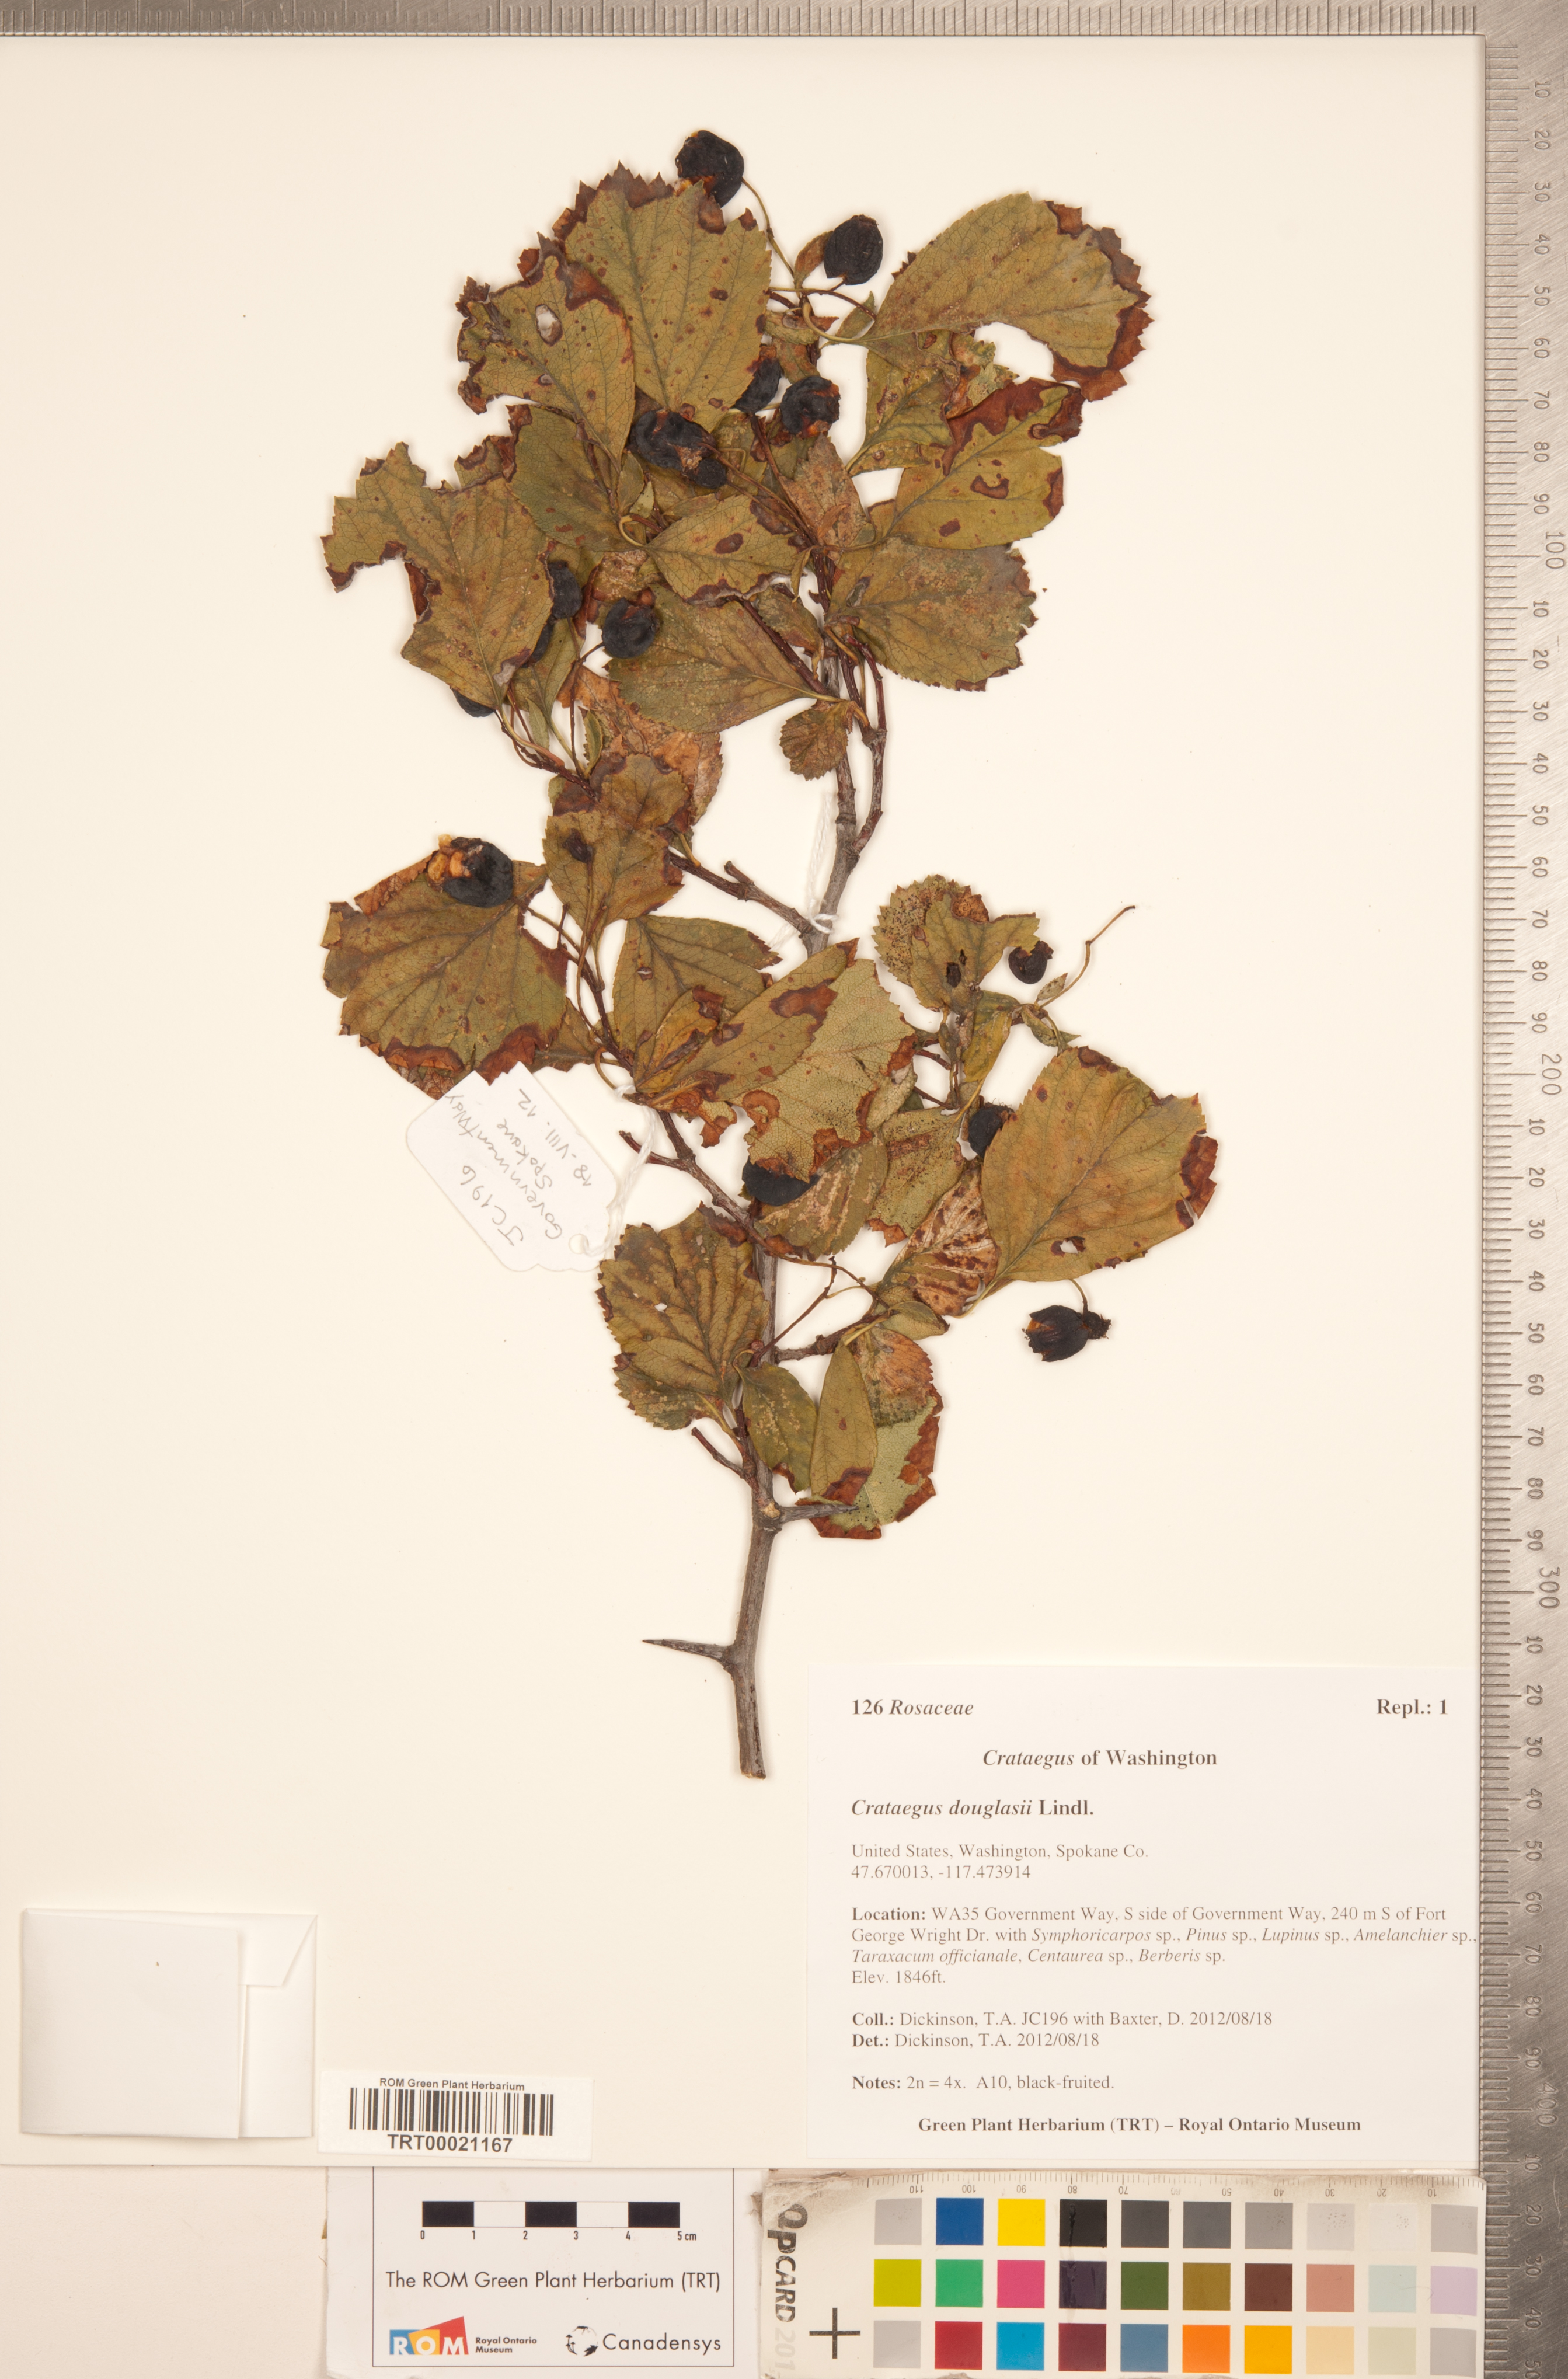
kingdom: Plantae
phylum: Tracheophyta
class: Magnoliopsida
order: Rosales
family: Rosaceae
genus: Crataegus
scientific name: Crataegus douglasii
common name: Black hawthorn
